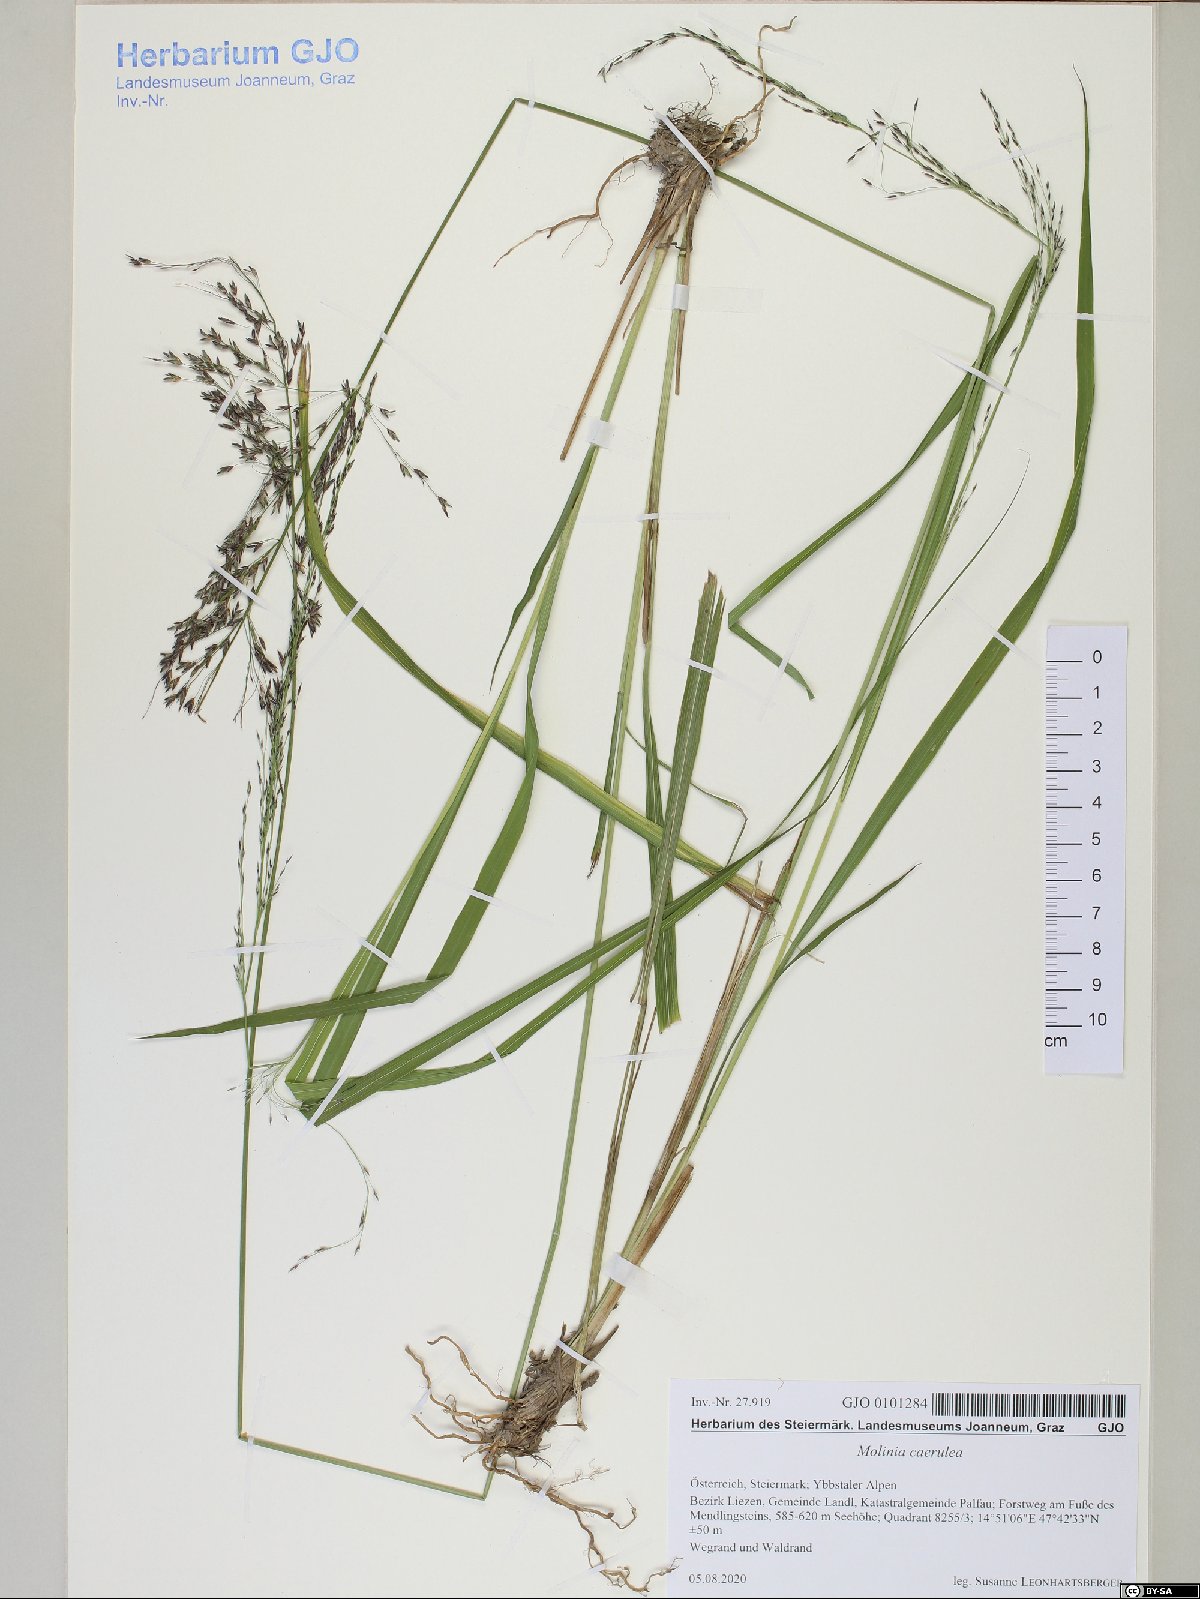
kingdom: Plantae
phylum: Tracheophyta
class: Liliopsida
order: Poales
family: Poaceae
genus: Molinia
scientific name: Molinia caerulea
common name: Purple moor-grass
